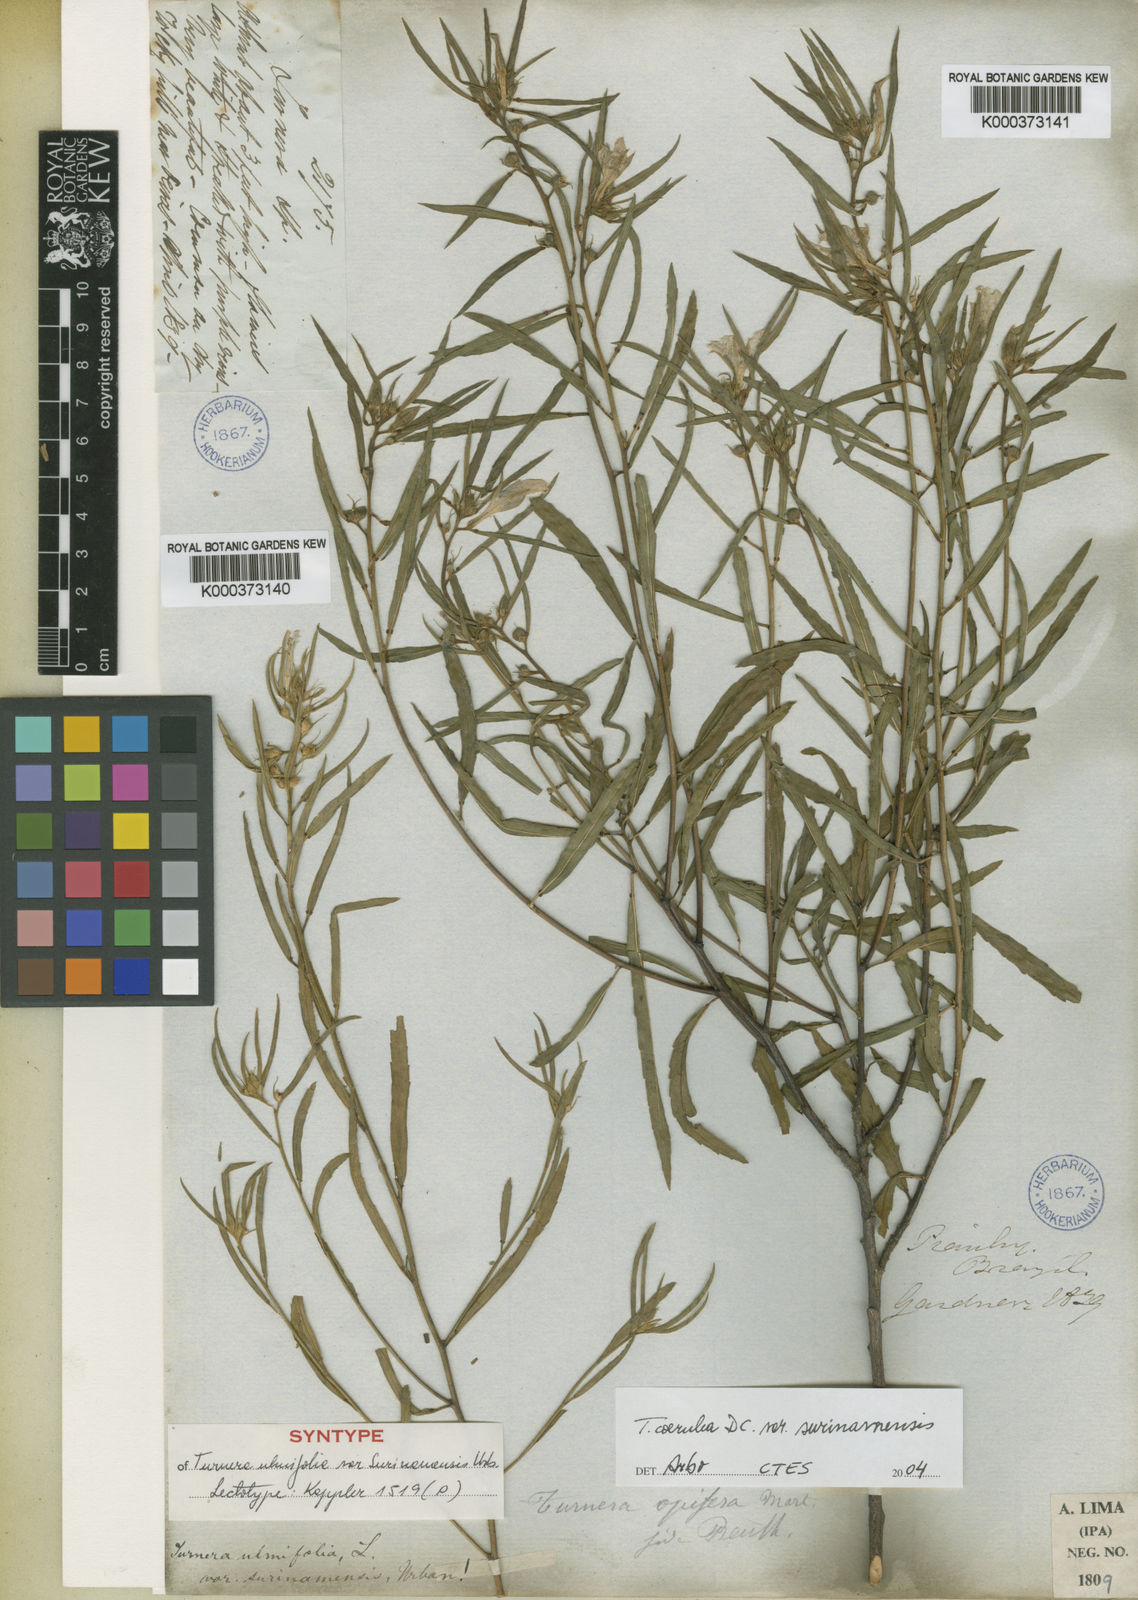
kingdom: Plantae
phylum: Tracheophyta
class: Magnoliopsida
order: Malpighiales
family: Turneraceae
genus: Turnera
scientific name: Turnera coerulea
